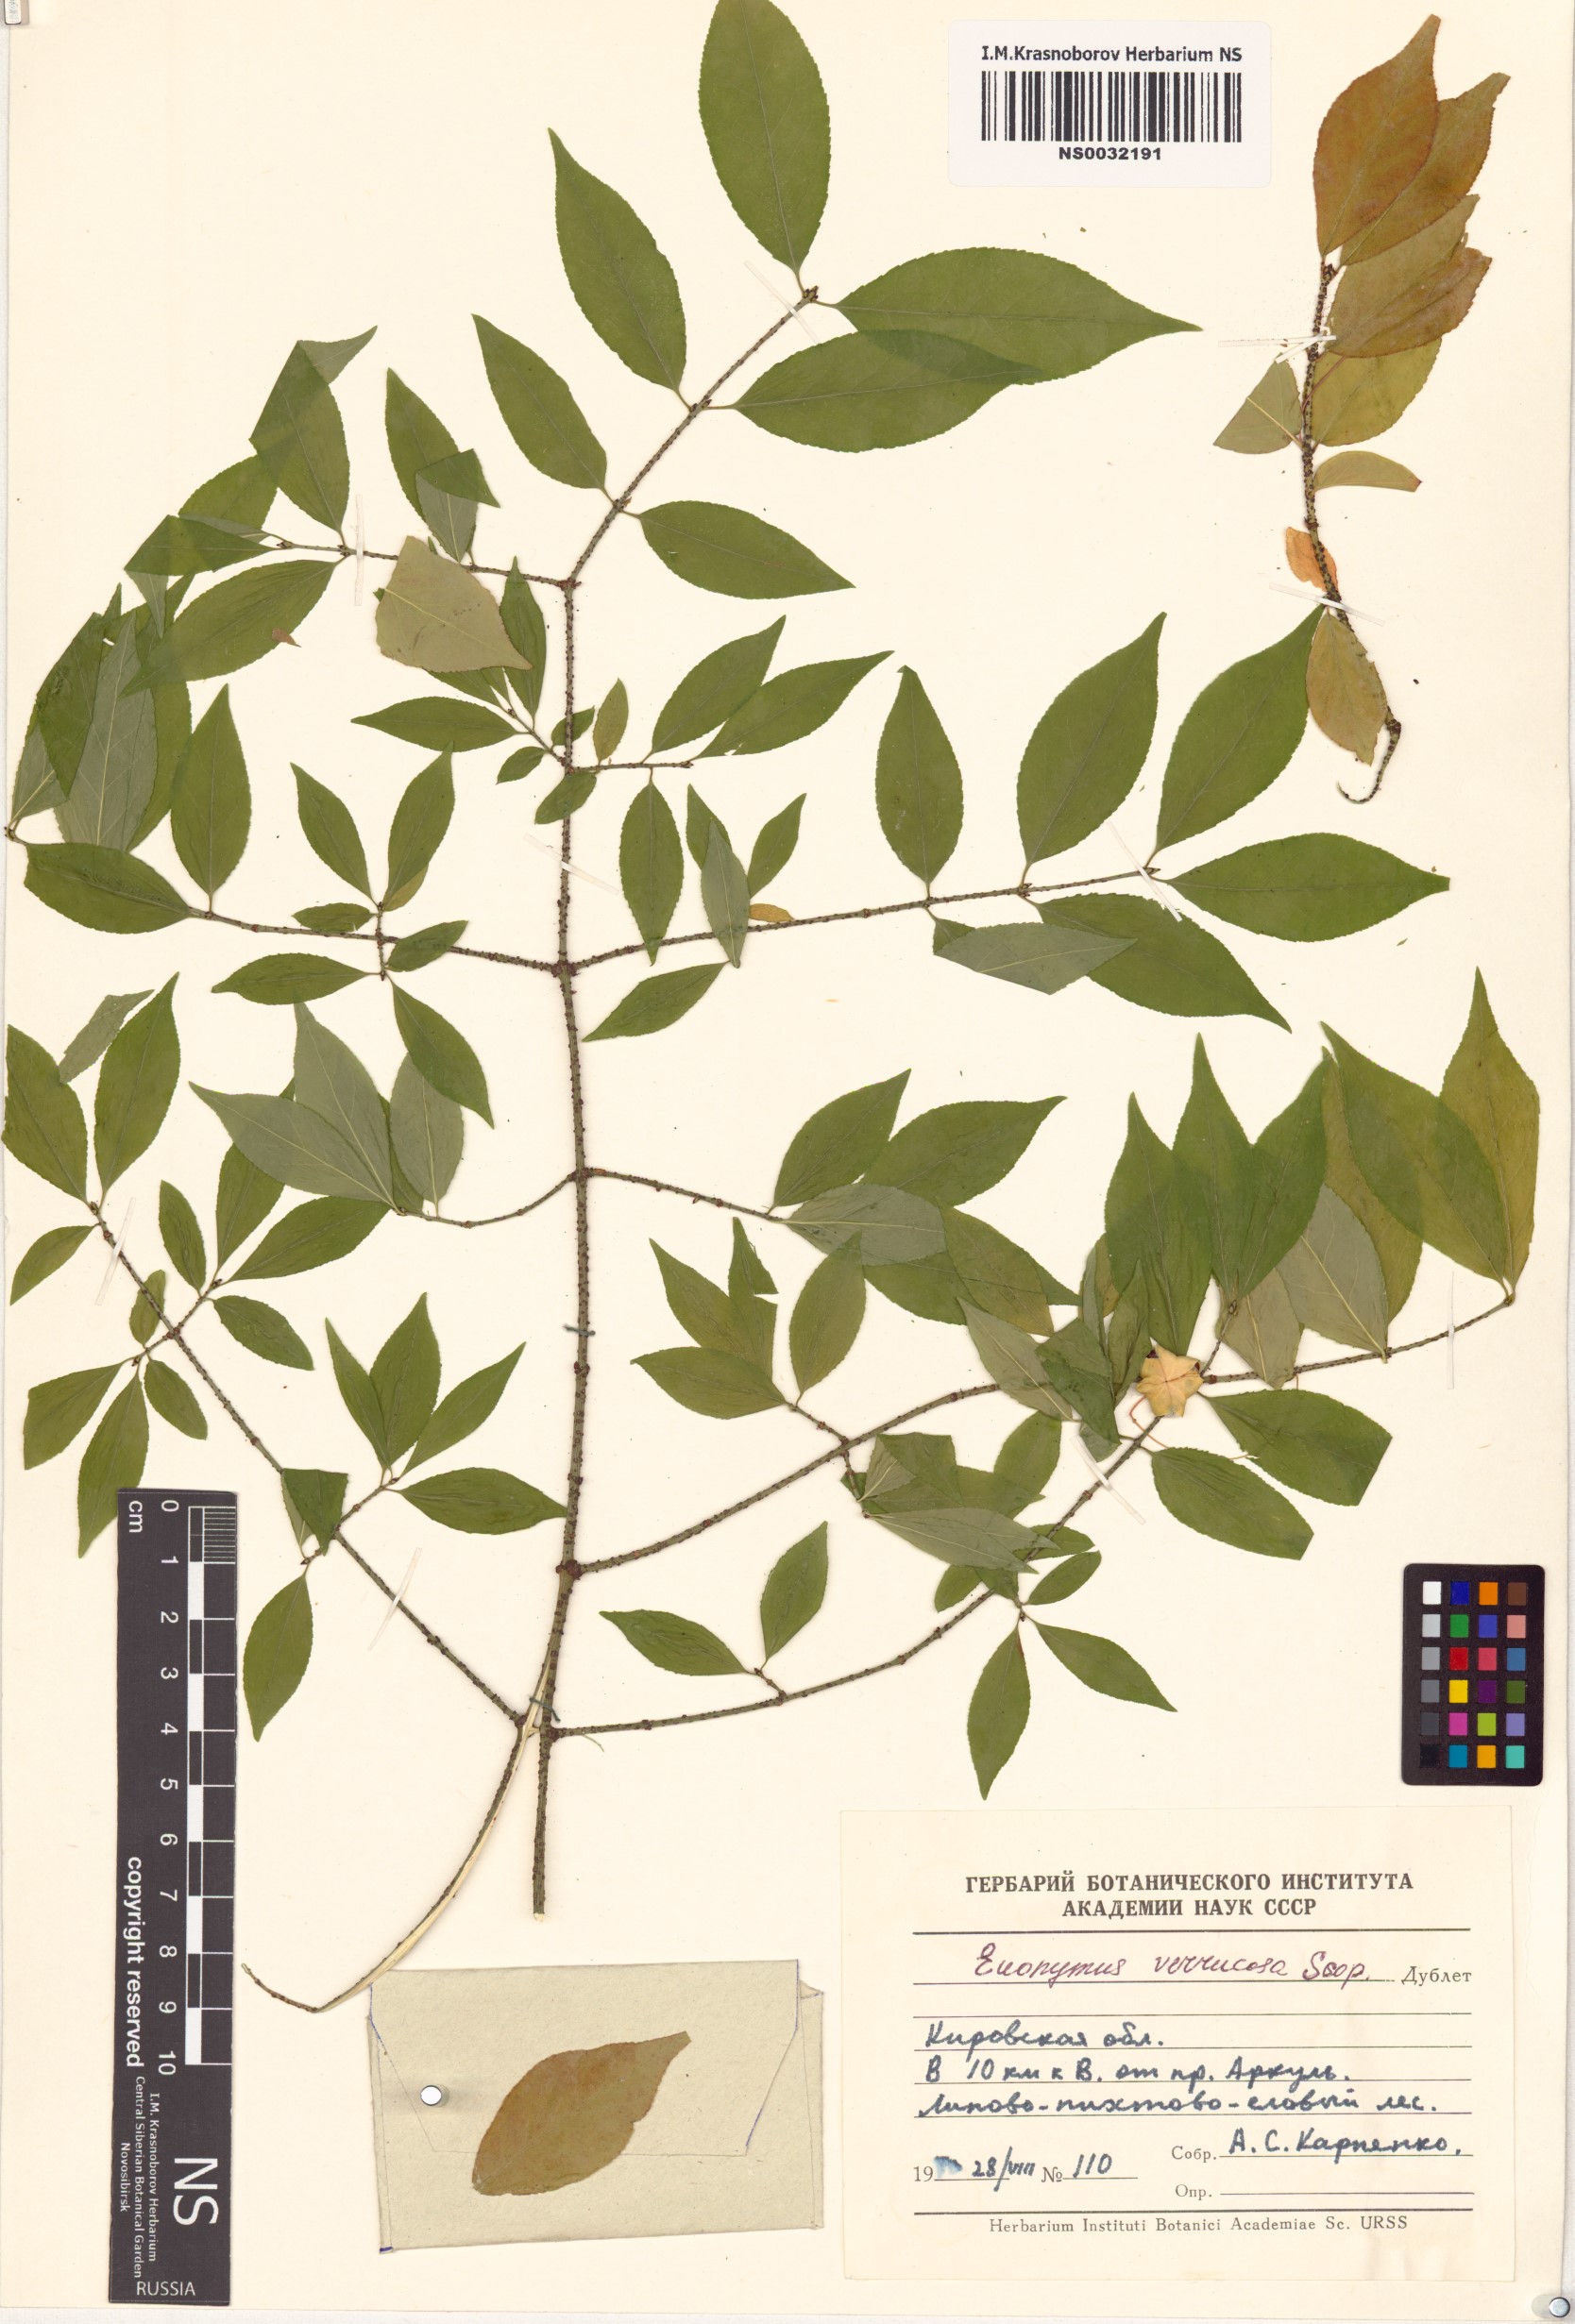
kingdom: Plantae
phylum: Tracheophyta
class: Magnoliopsida
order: Celastrales
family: Celastraceae
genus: Euonymus
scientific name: Euonymus verrucosus
